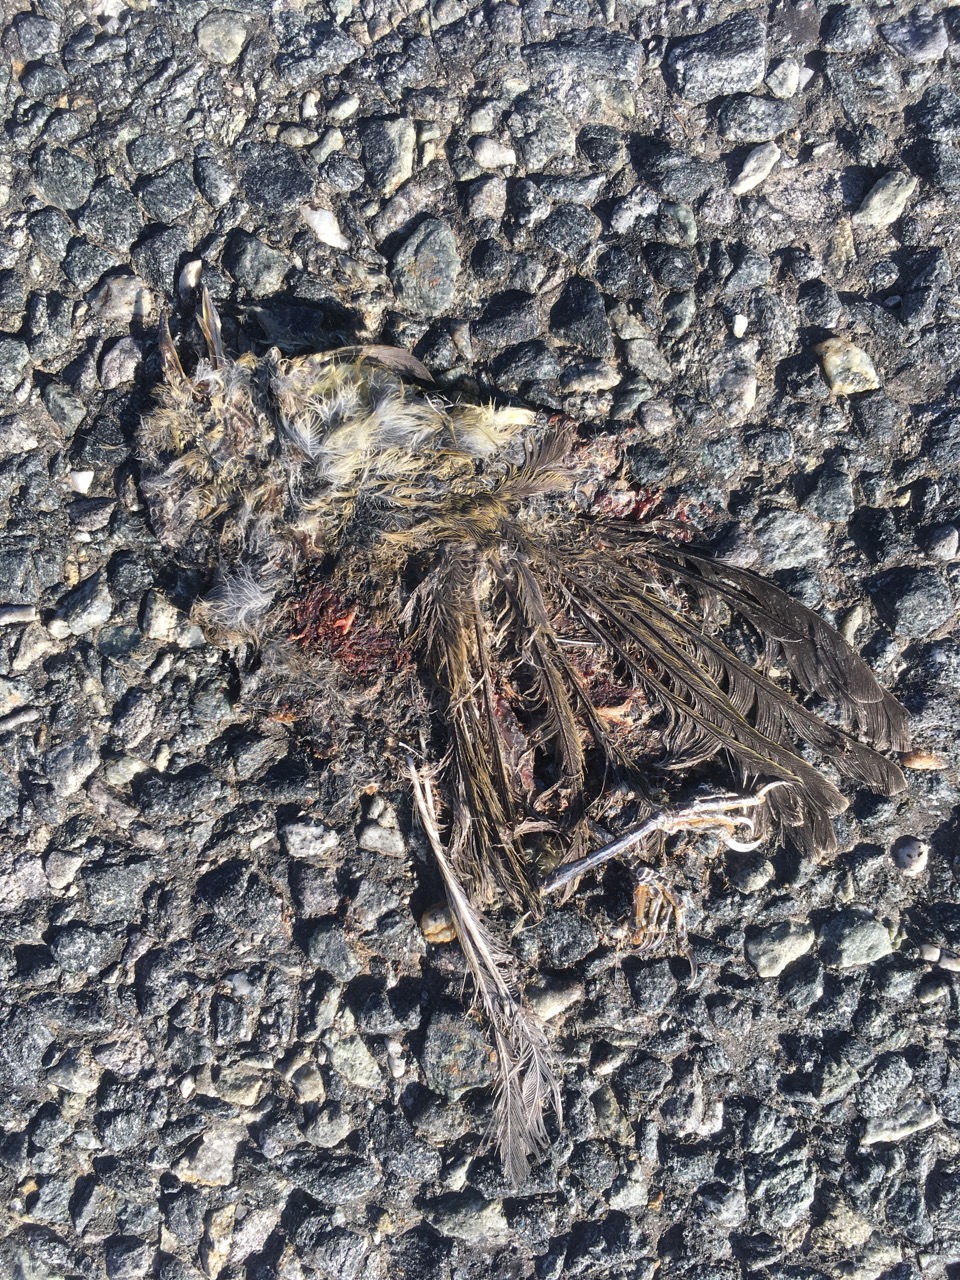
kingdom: Animalia
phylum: Chordata
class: Aves
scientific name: Aves
